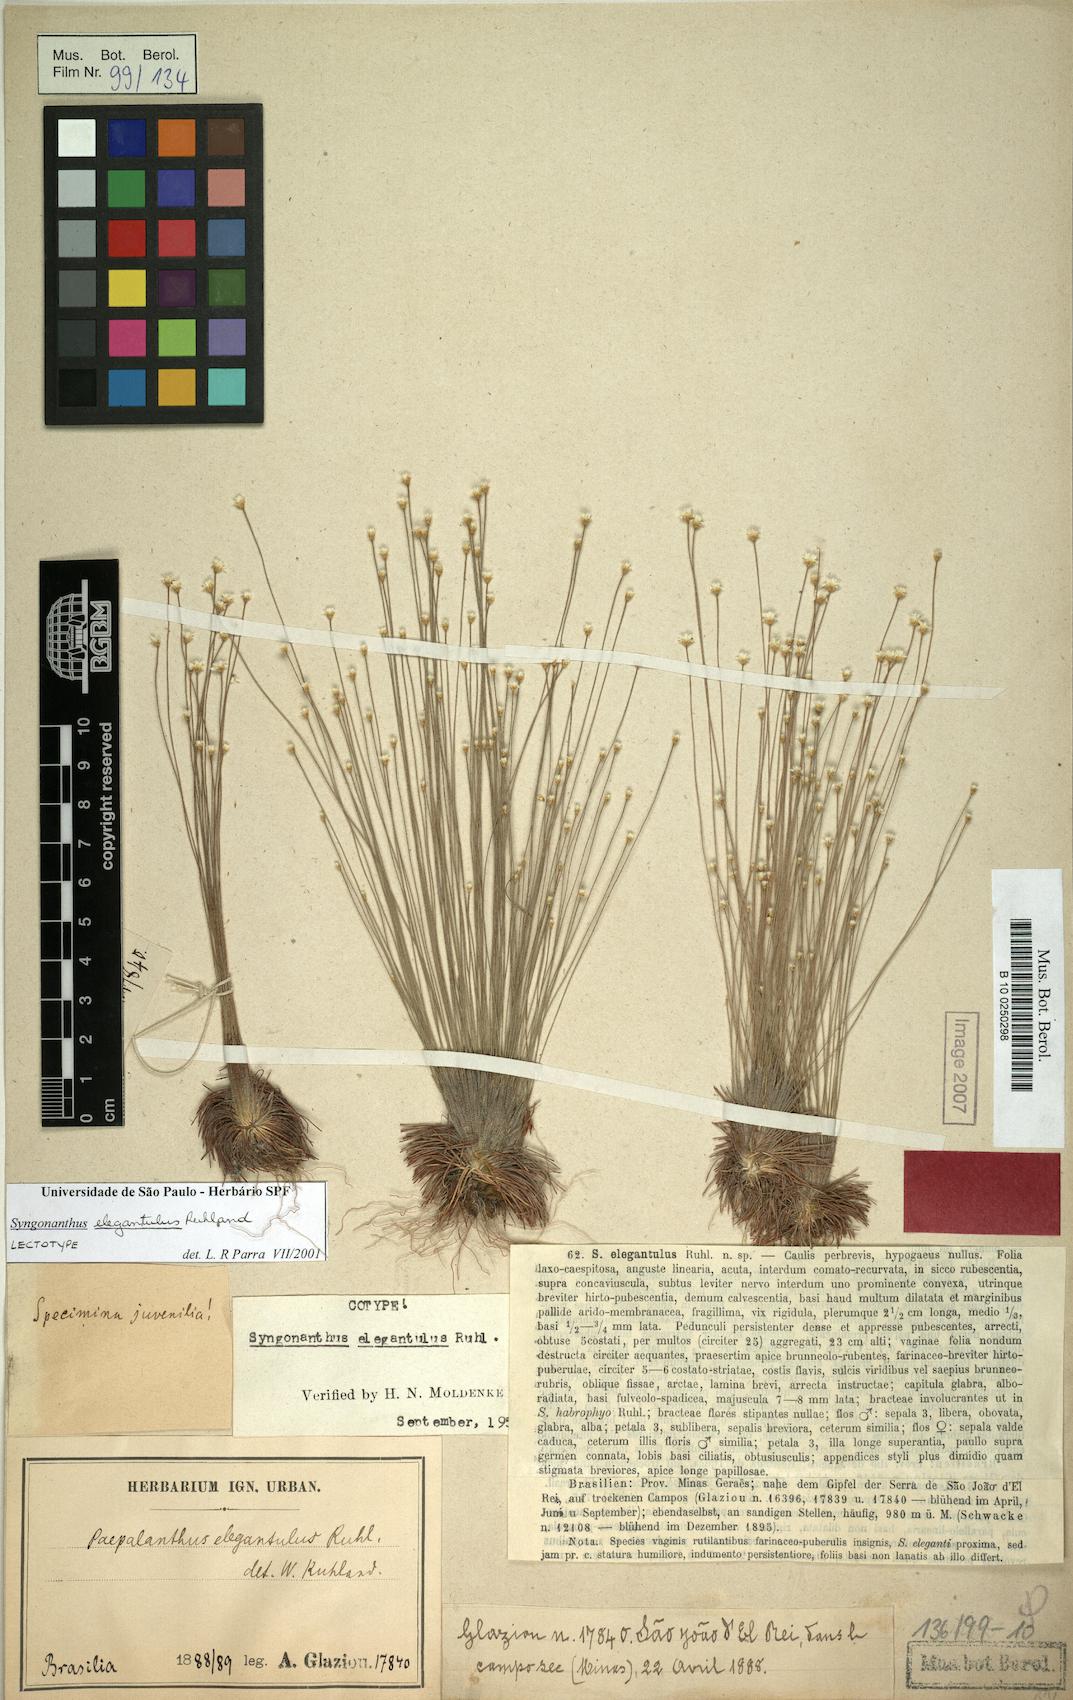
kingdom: Plantae
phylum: Tracheophyta
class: Liliopsida
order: Poales
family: Eriocaulaceae
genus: Comanthera
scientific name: Comanthera elegantula
